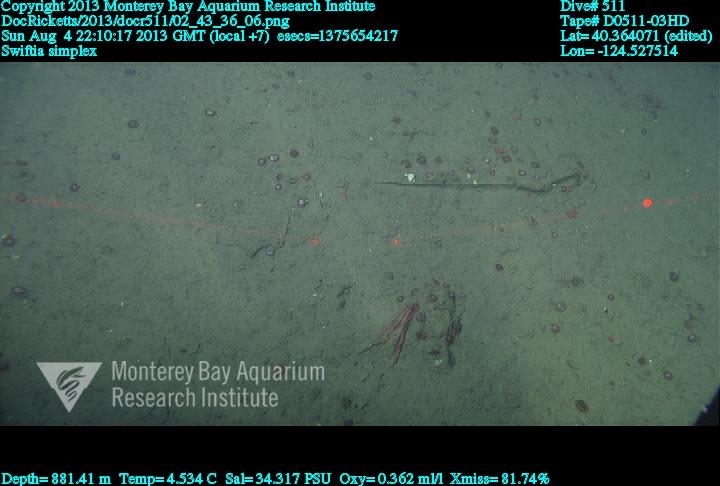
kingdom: Animalia
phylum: Cnidaria
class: Anthozoa
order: Malacalcyonacea
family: Gorgoniidae
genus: Callistephanus
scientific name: Callistephanus simplex
